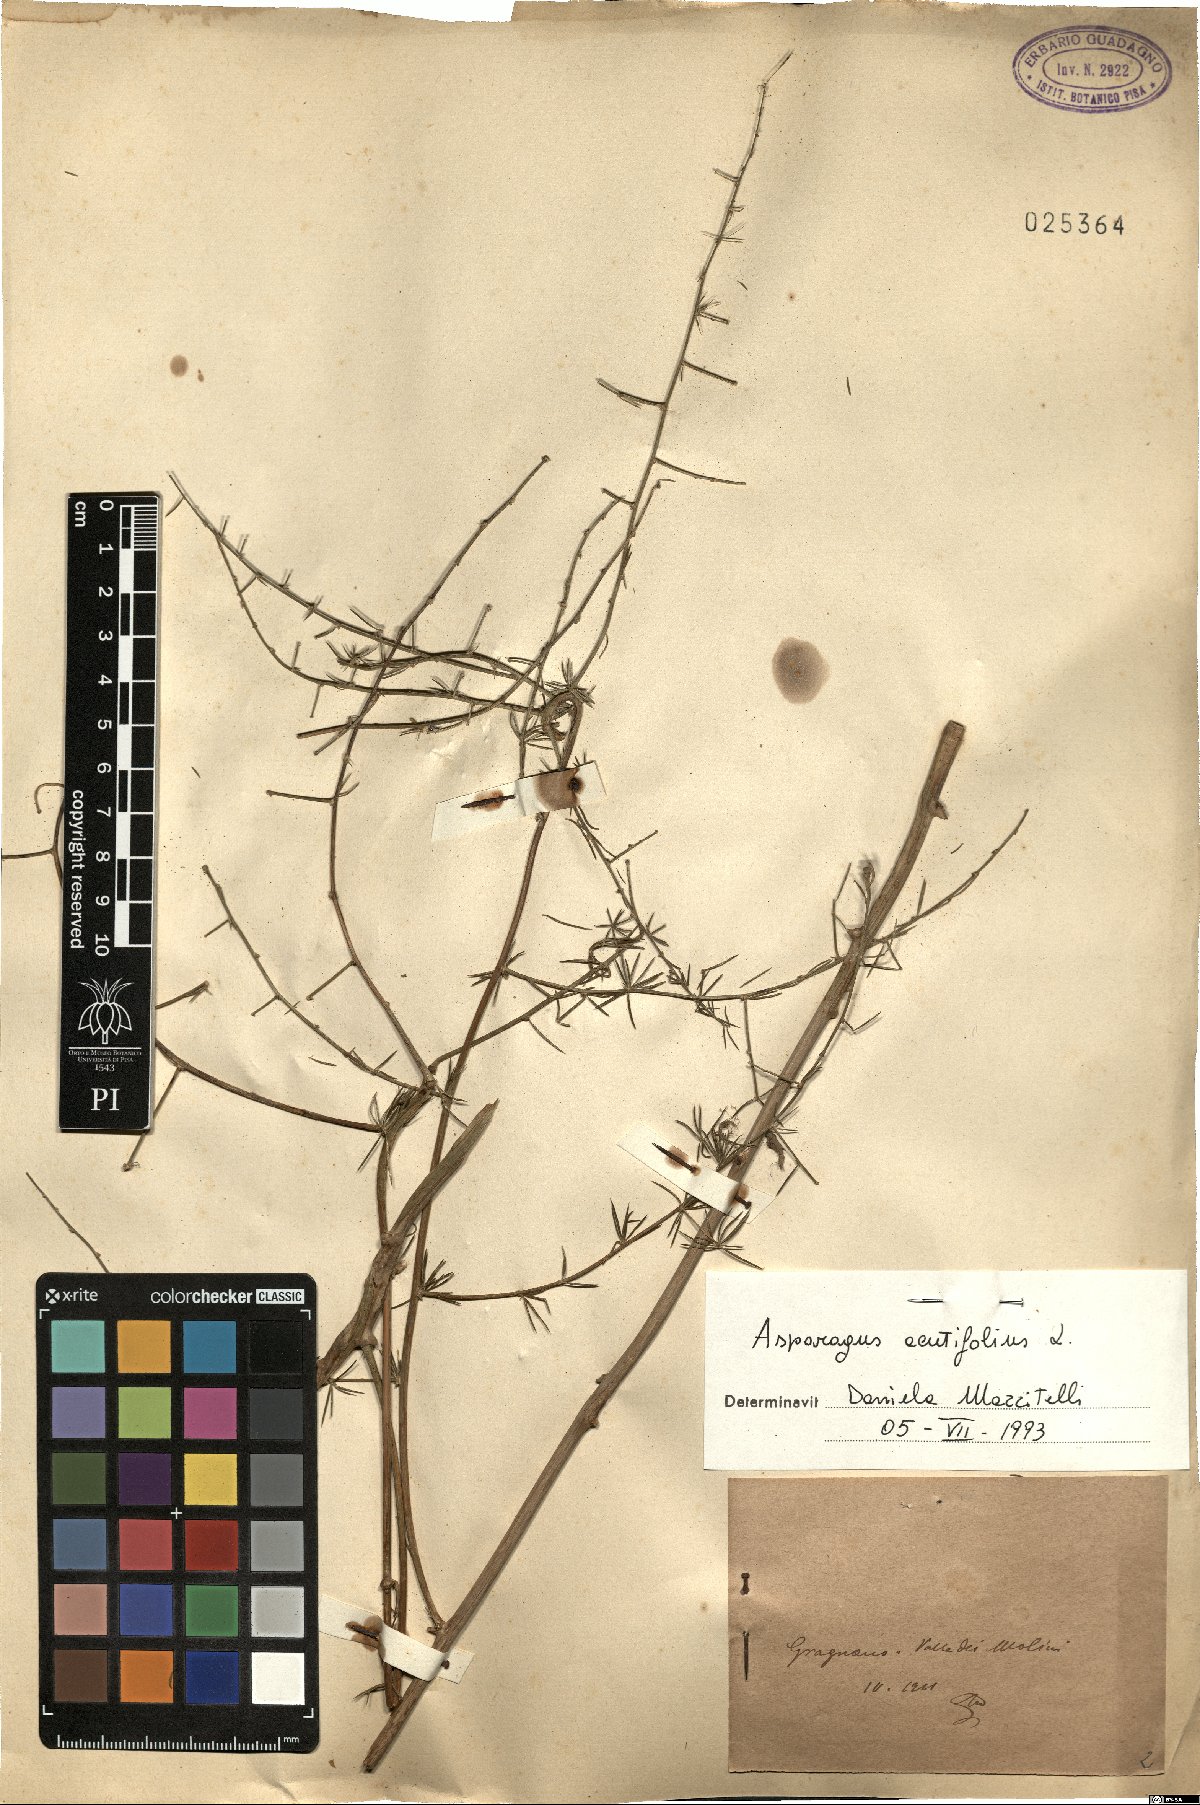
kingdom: Plantae
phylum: Tracheophyta
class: Liliopsida
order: Asparagales
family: Asparagaceae
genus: Asparagus
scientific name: Asparagus acutifolius
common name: Wild asparagus
